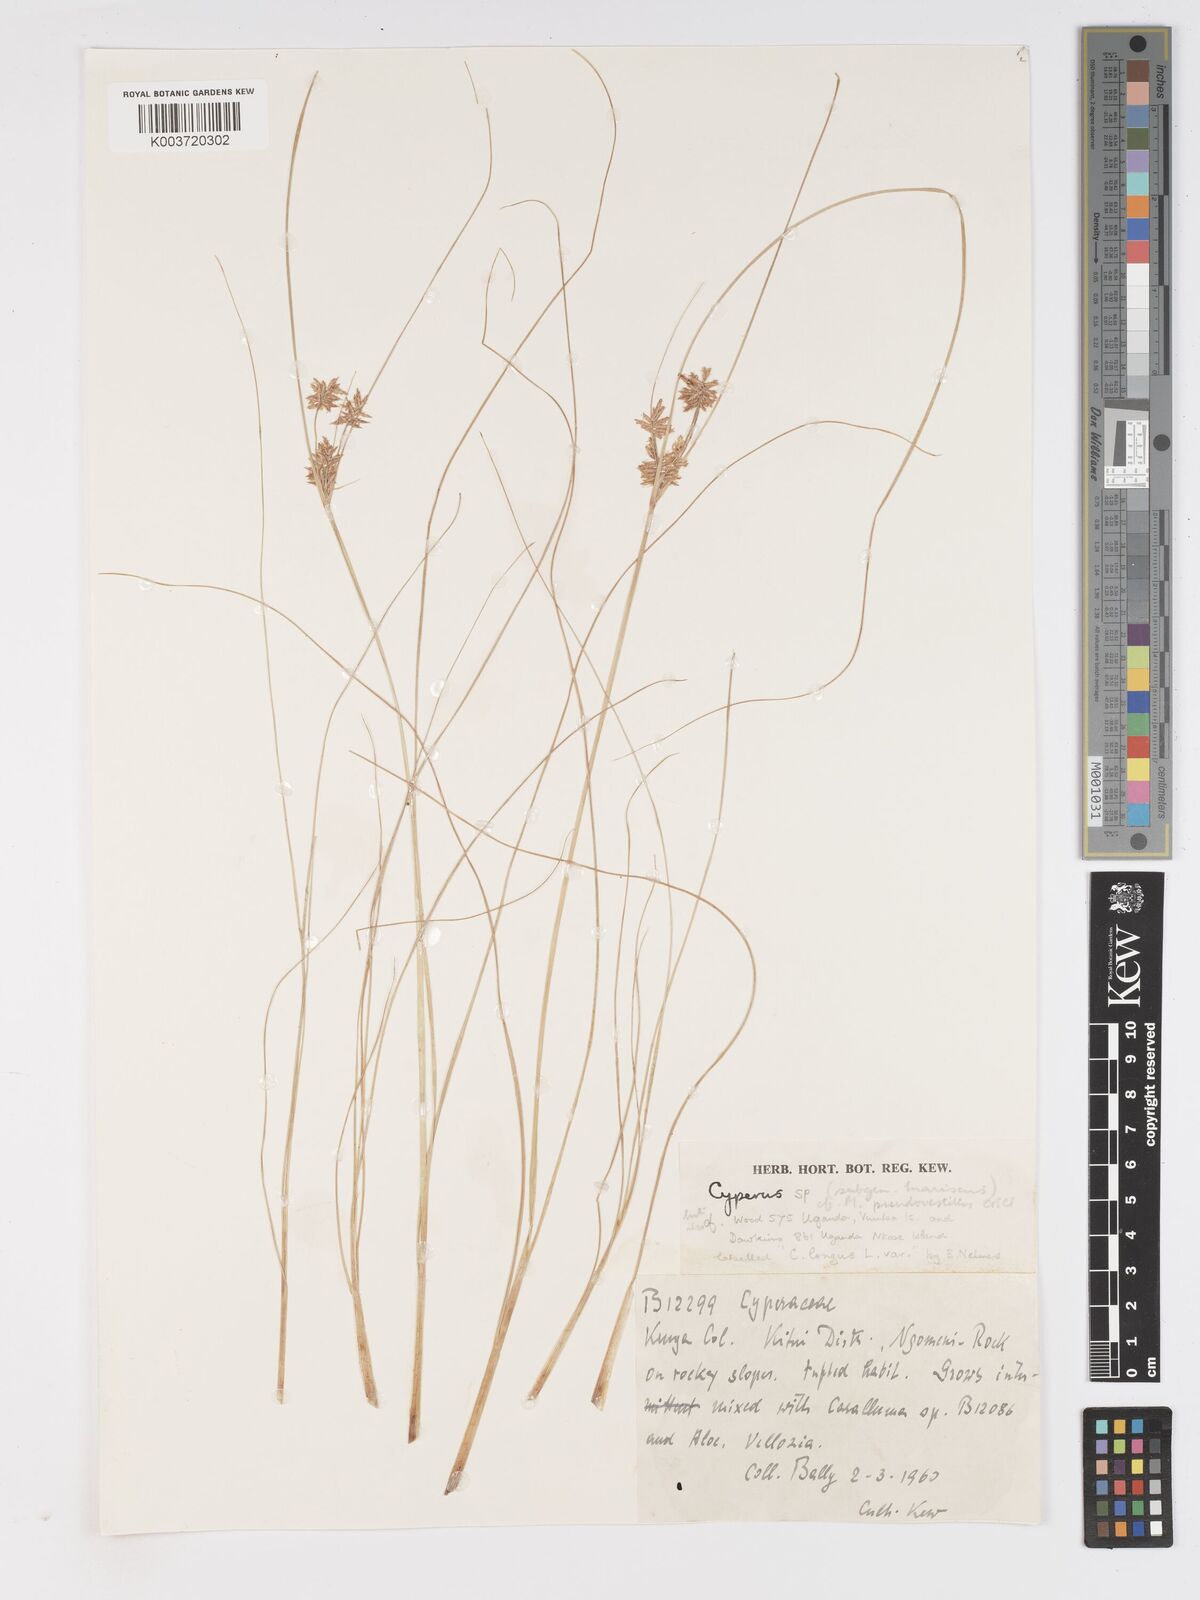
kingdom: Plantae
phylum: Tracheophyta
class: Liliopsida
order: Poales
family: Cyperaceae
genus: Cyperus
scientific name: Cyperus
